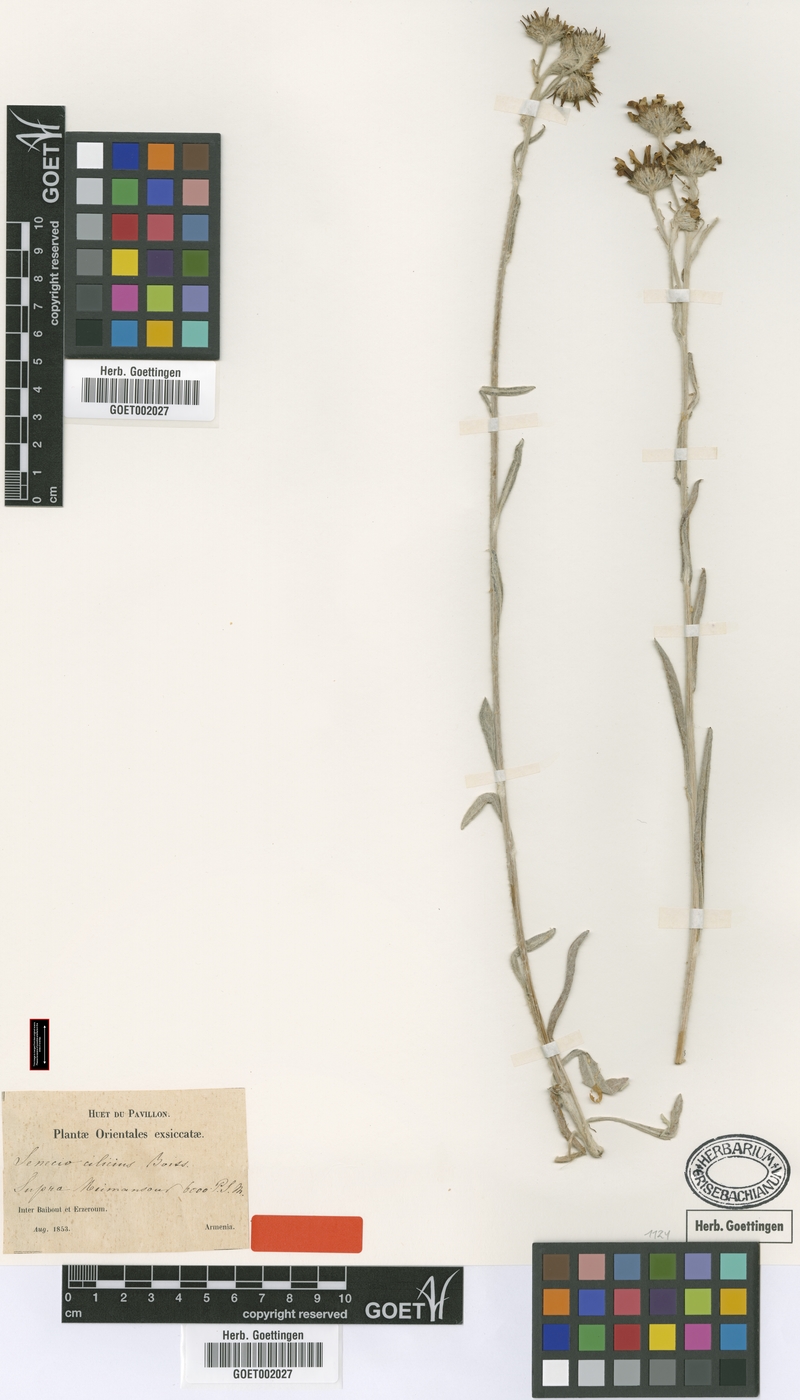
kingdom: Plantae
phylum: Tracheophyta
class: Magnoliopsida
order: Asterales
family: Asteraceae
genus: Jacobaea
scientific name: Jacobaea cilicia
